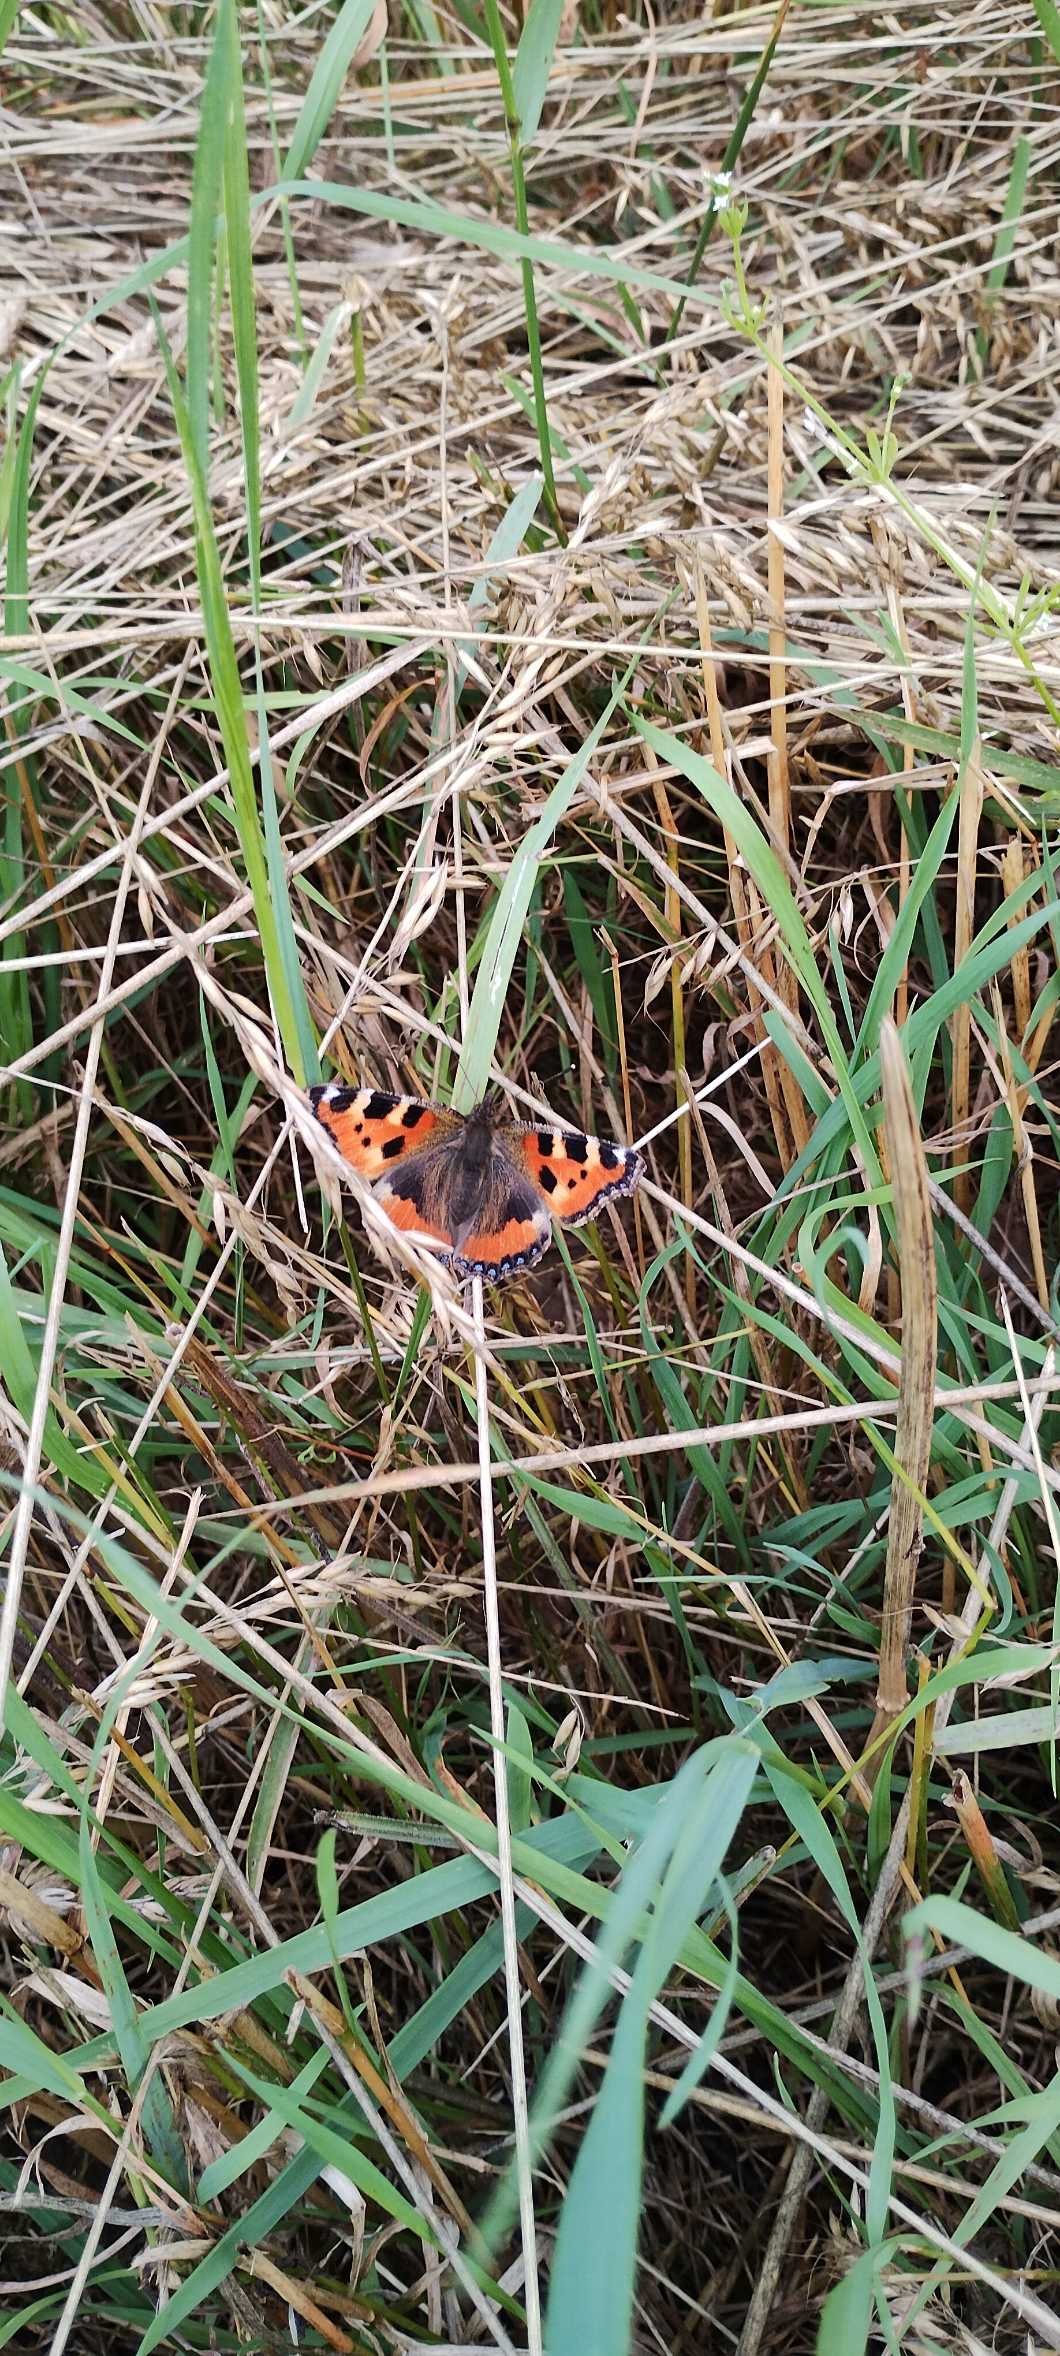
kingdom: Animalia
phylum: Arthropoda
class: Insecta
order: Lepidoptera
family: Nymphalidae
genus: Aglais
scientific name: Aglais urticae
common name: Nældens takvinge
